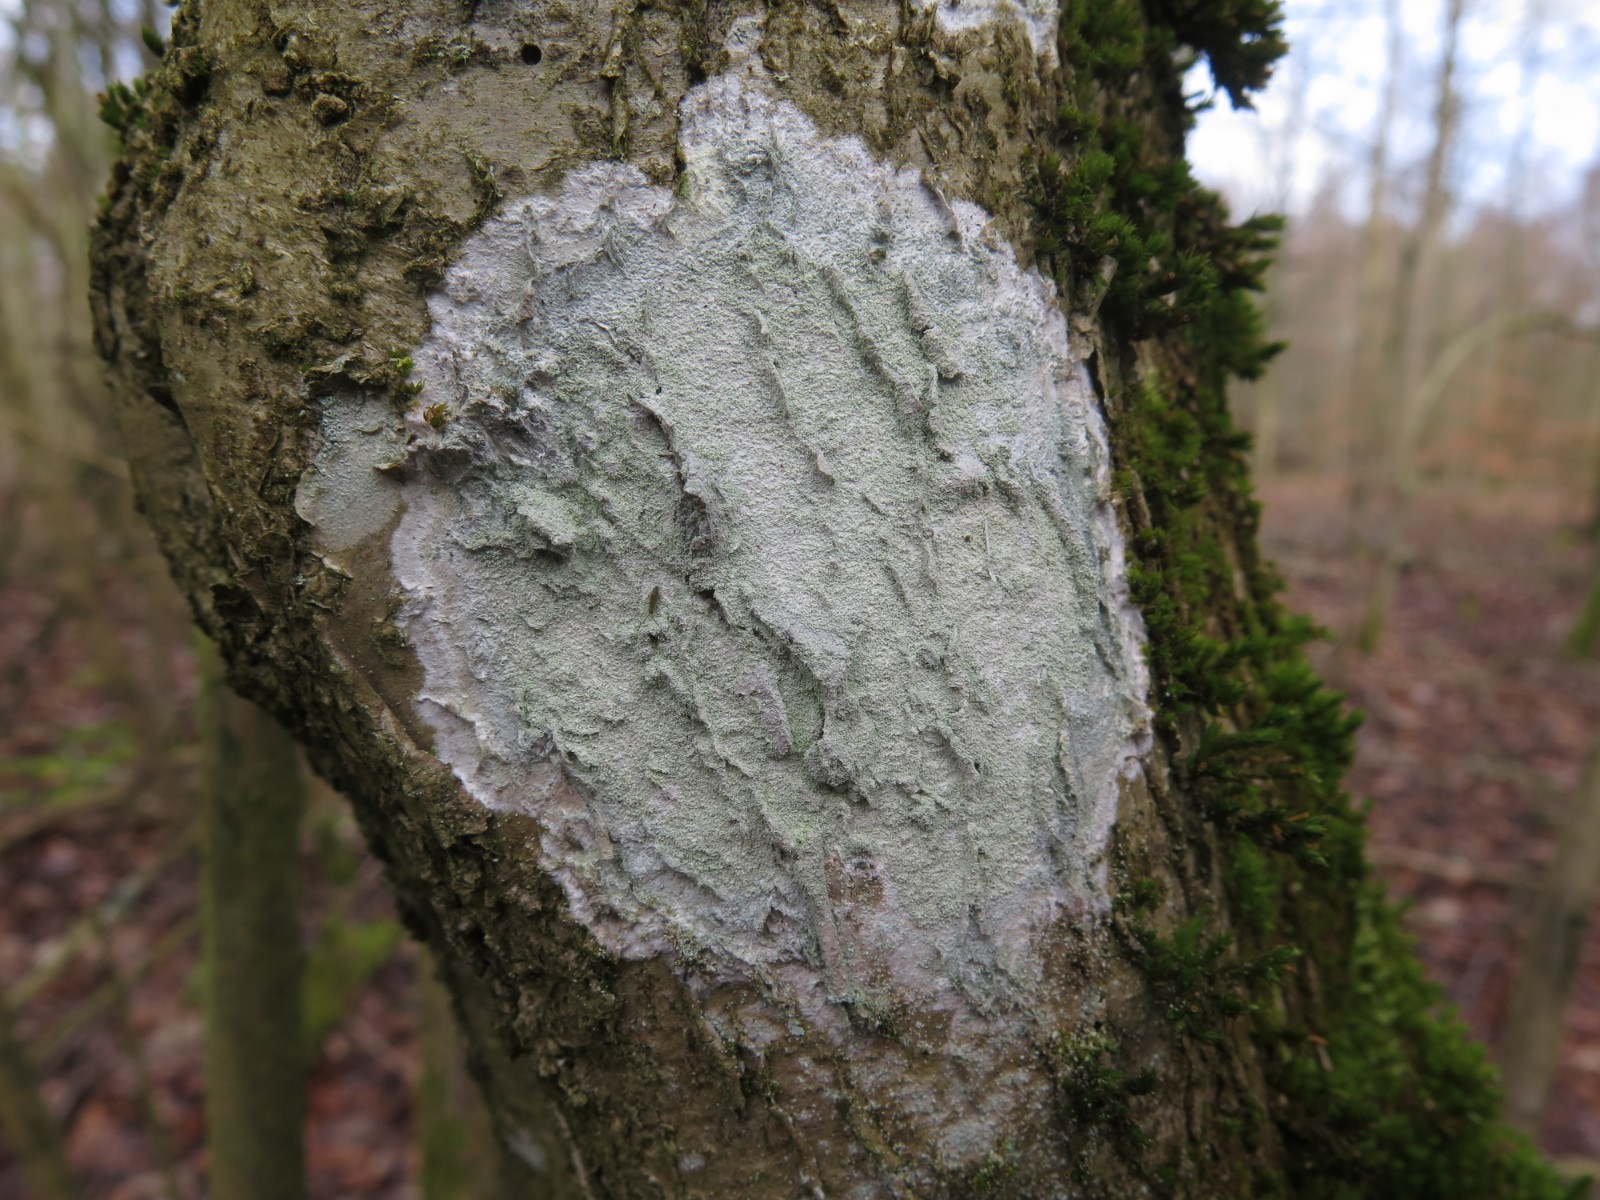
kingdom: Fungi
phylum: Ascomycota
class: Lecanoromycetes
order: Ostropales
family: Phlyctidaceae
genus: Phlyctis
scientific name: Phlyctis argena
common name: almindelig sølvlav
